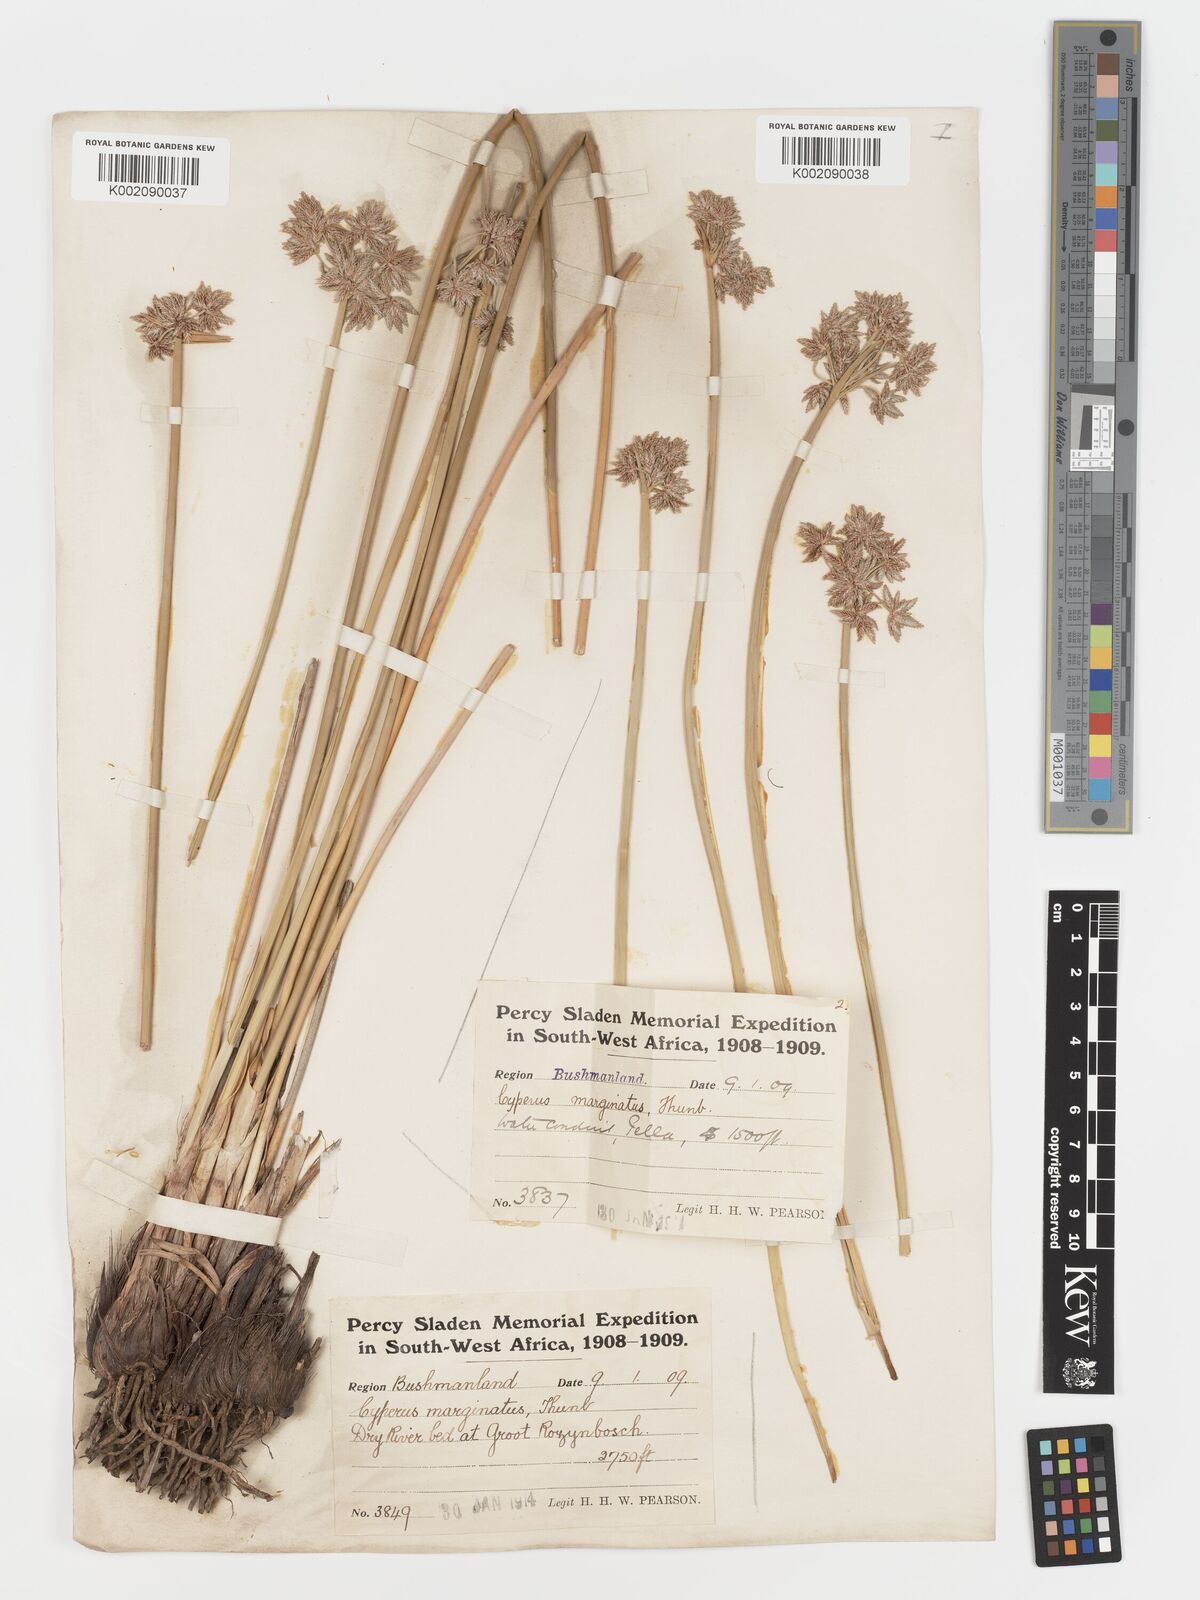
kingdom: Plantae
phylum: Tracheophyta
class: Liliopsida
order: Poales
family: Cyperaceae
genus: Cyperus
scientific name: Cyperus marginatus
